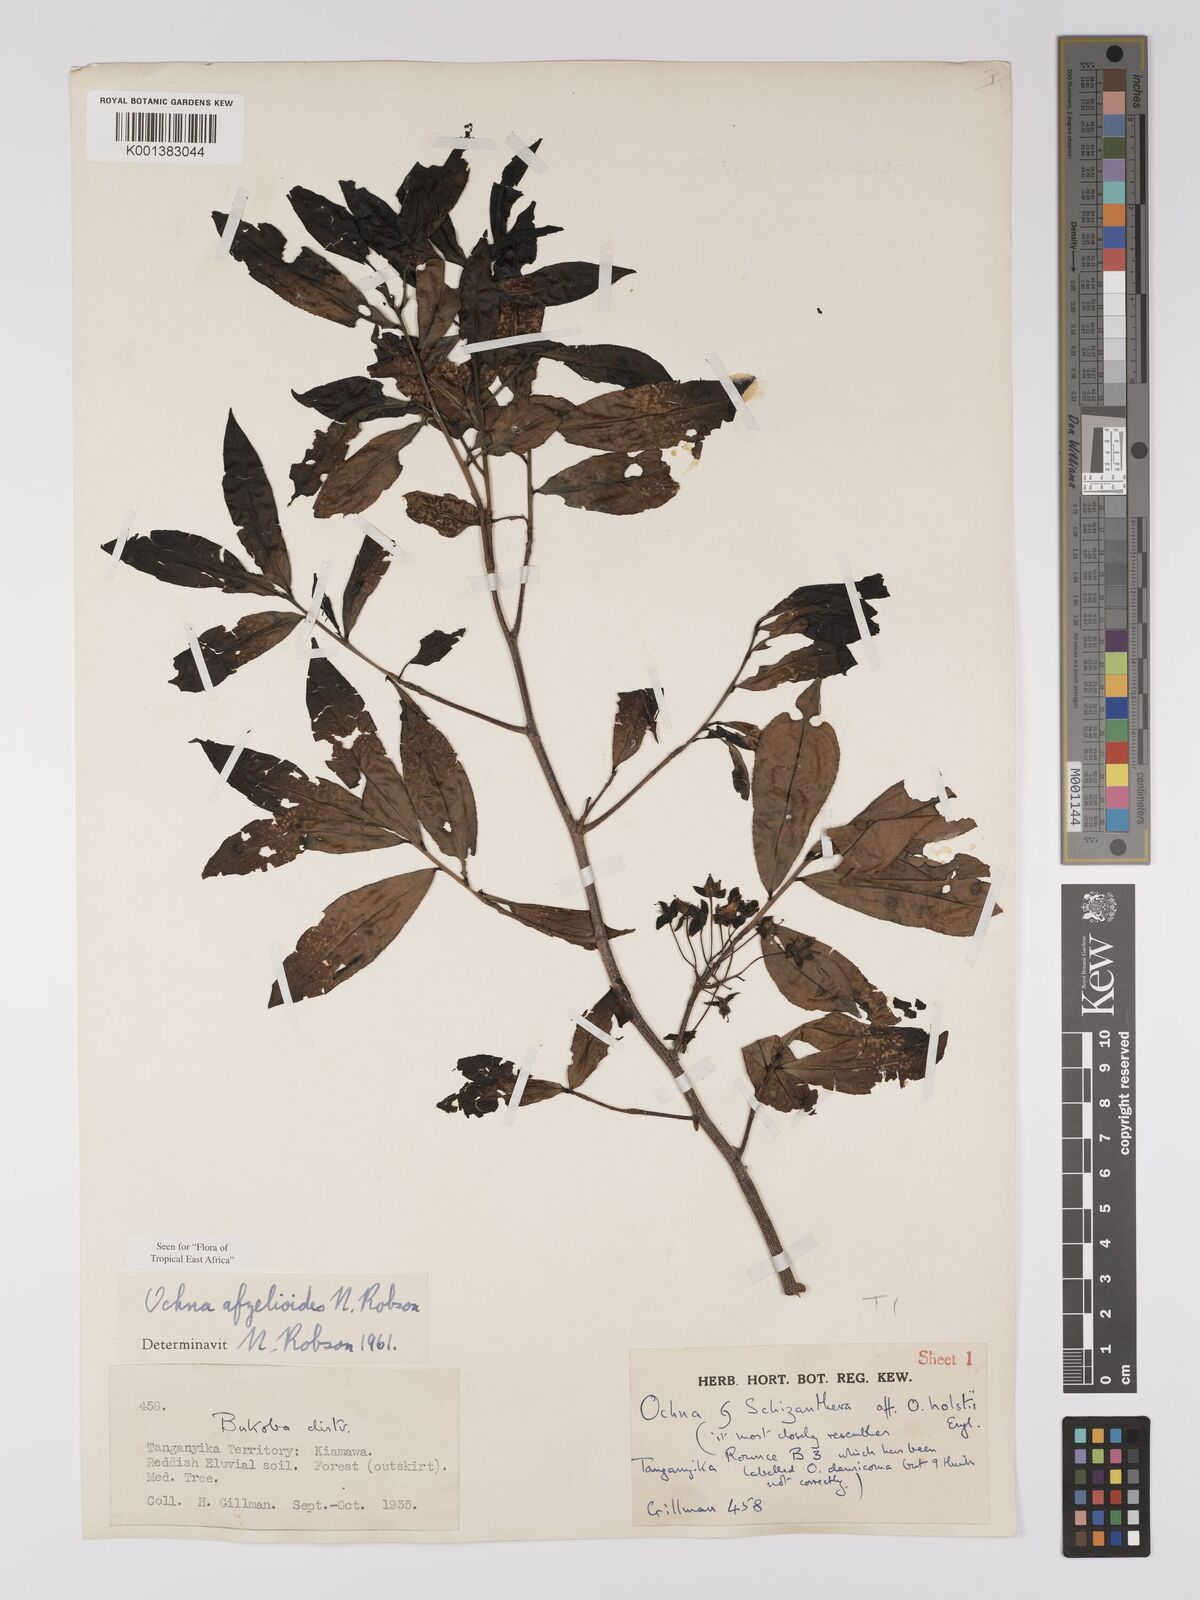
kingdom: Plantae
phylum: Tracheophyta
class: Magnoliopsida
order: Malpighiales
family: Ochnaceae
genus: Ochna
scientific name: Ochna afzelioides
